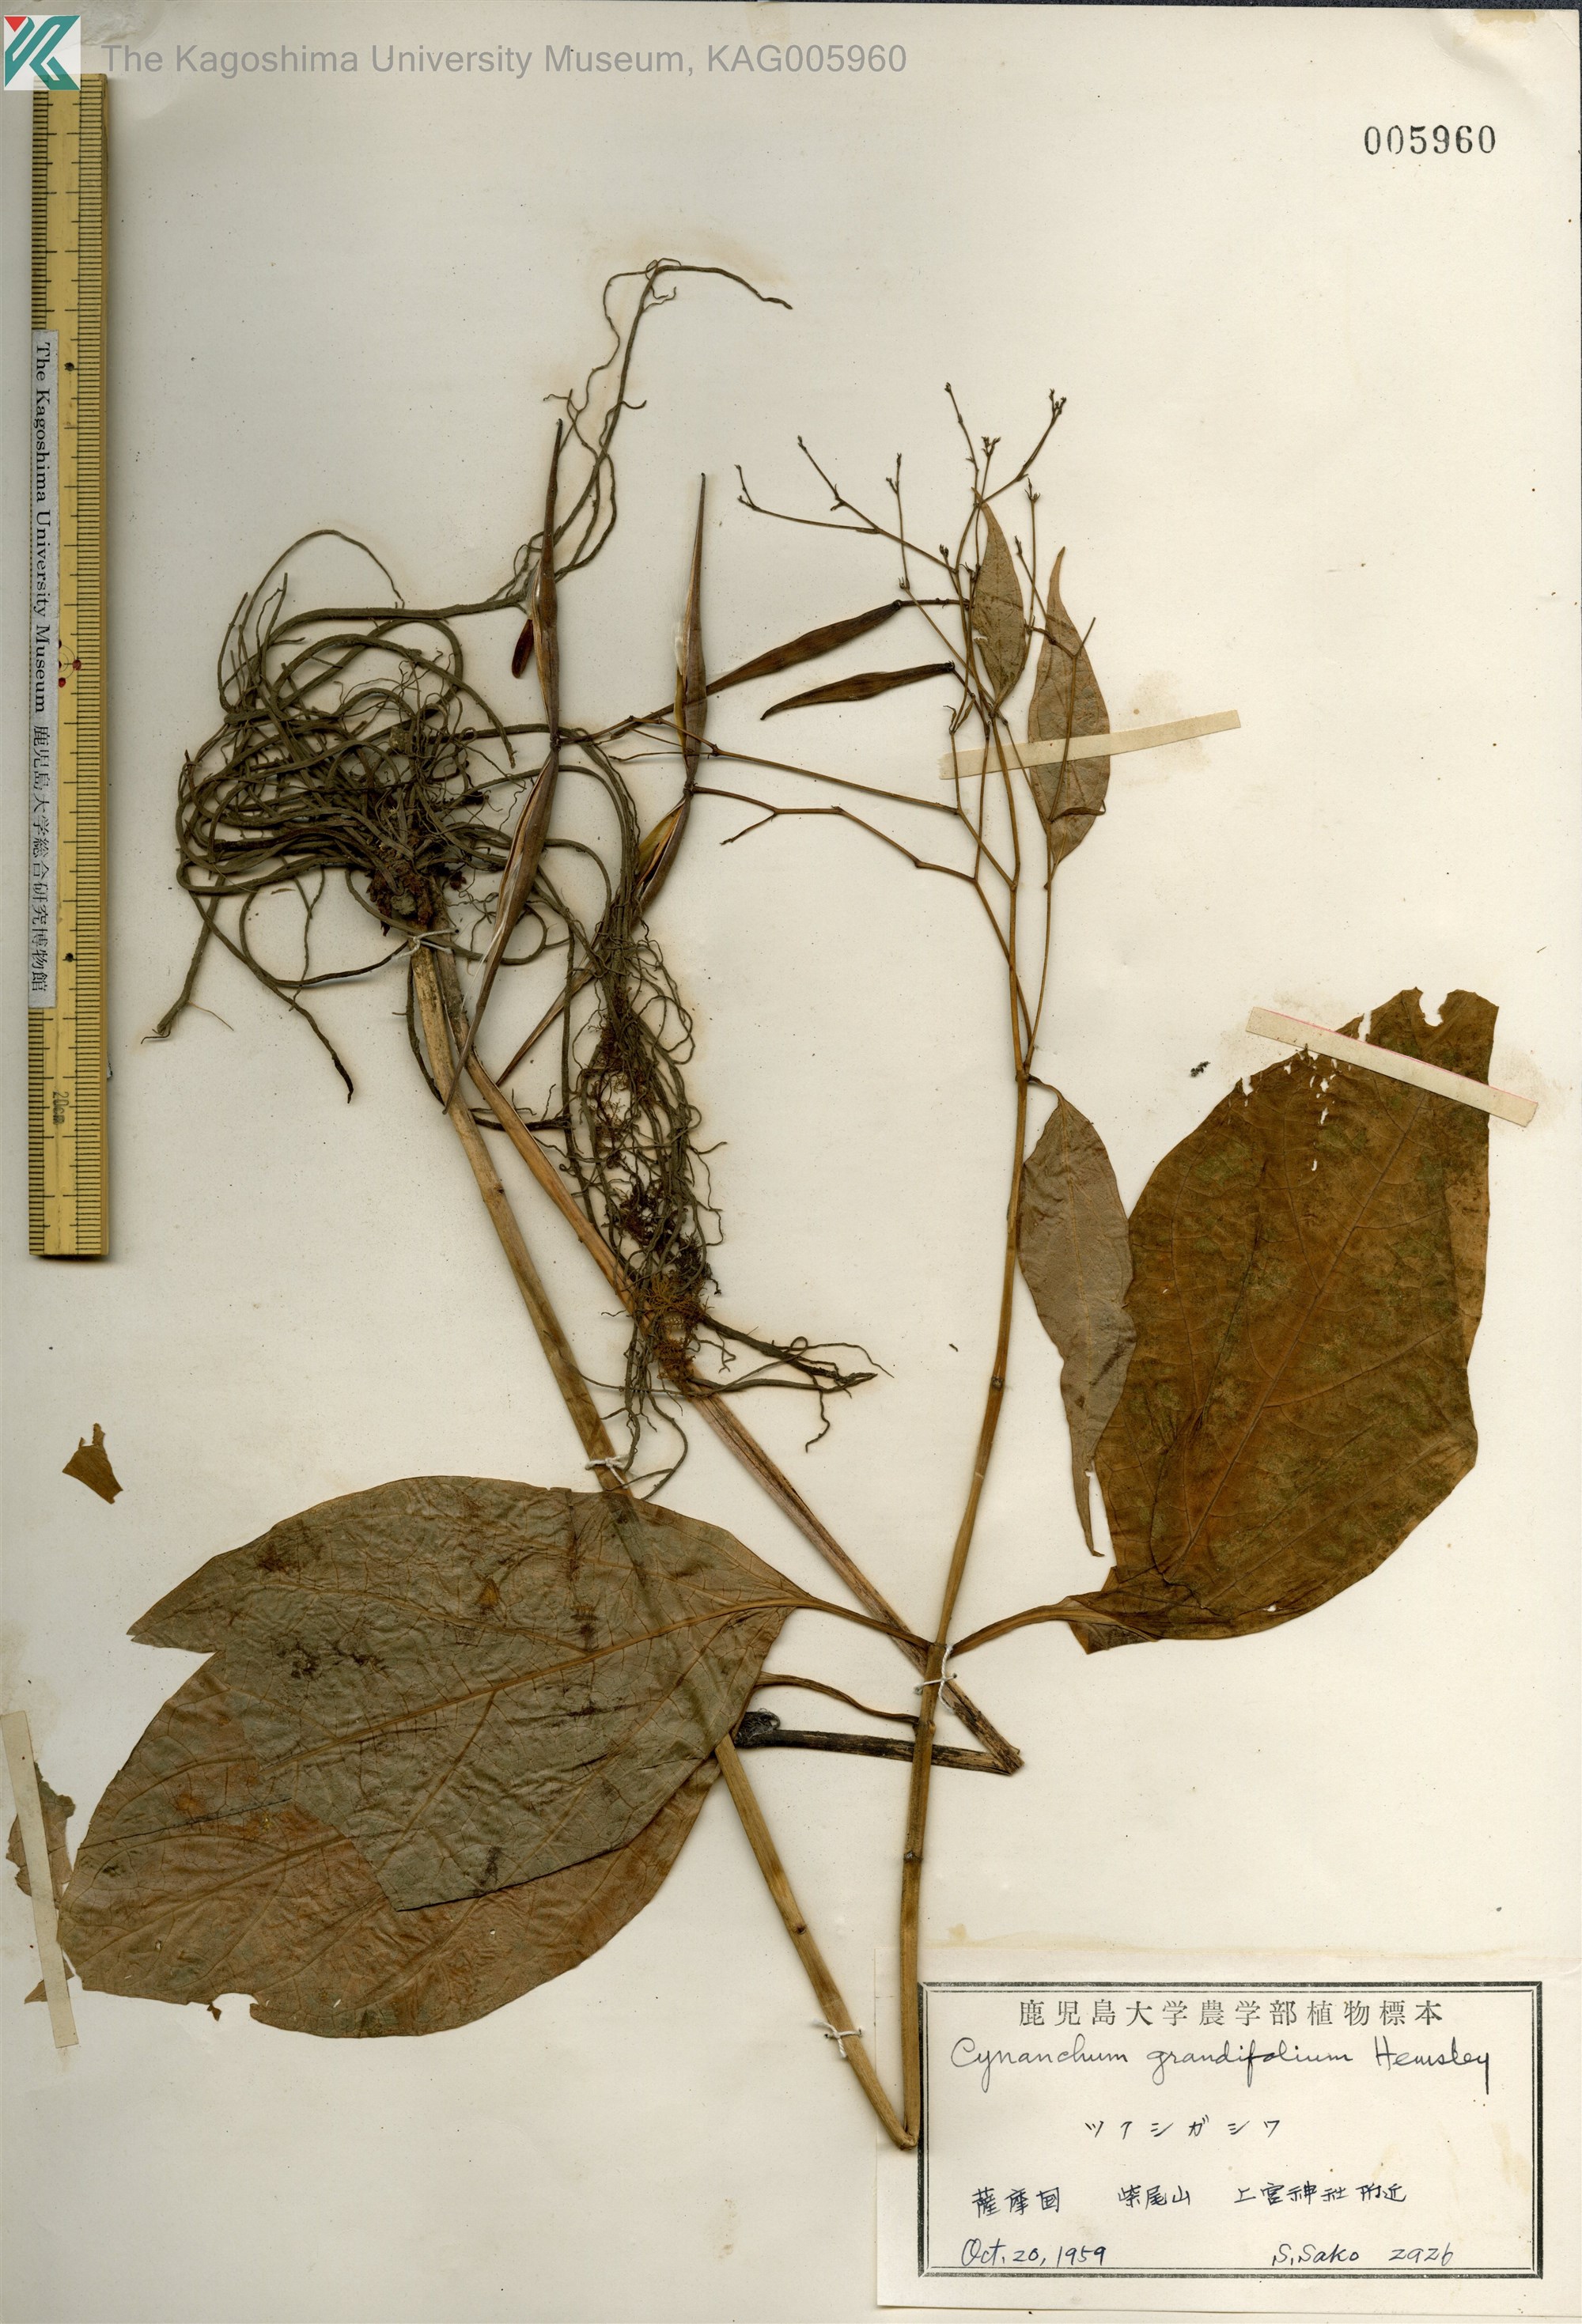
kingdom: Plantae
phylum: Tracheophyta
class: Magnoliopsida
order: Gentianales
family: Apocynaceae
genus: Vincetoxicum
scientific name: Vincetoxicum macrophyllum
